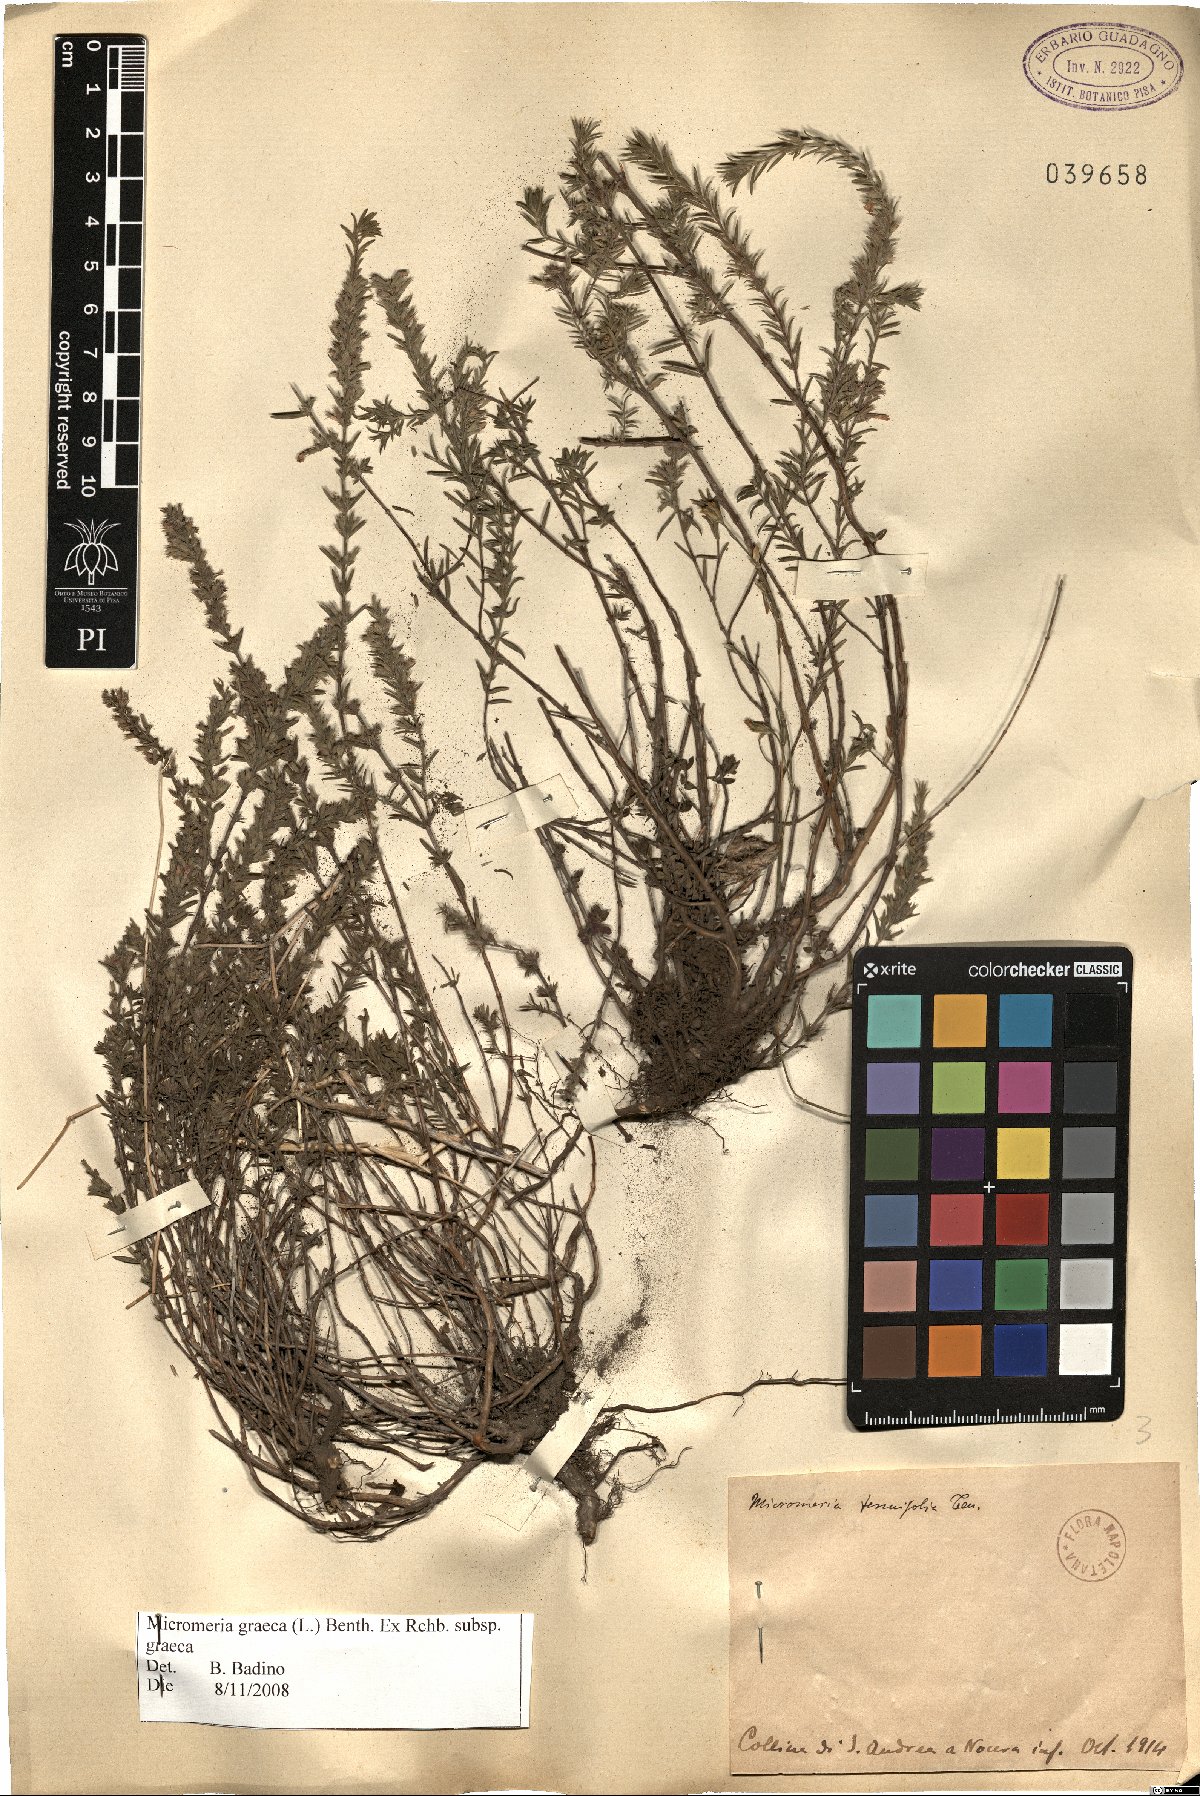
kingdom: Plantae
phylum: Tracheophyta
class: Magnoliopsida
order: Lamiales
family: Lamiaceae
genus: Micromeria
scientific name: Micromeria graeca
